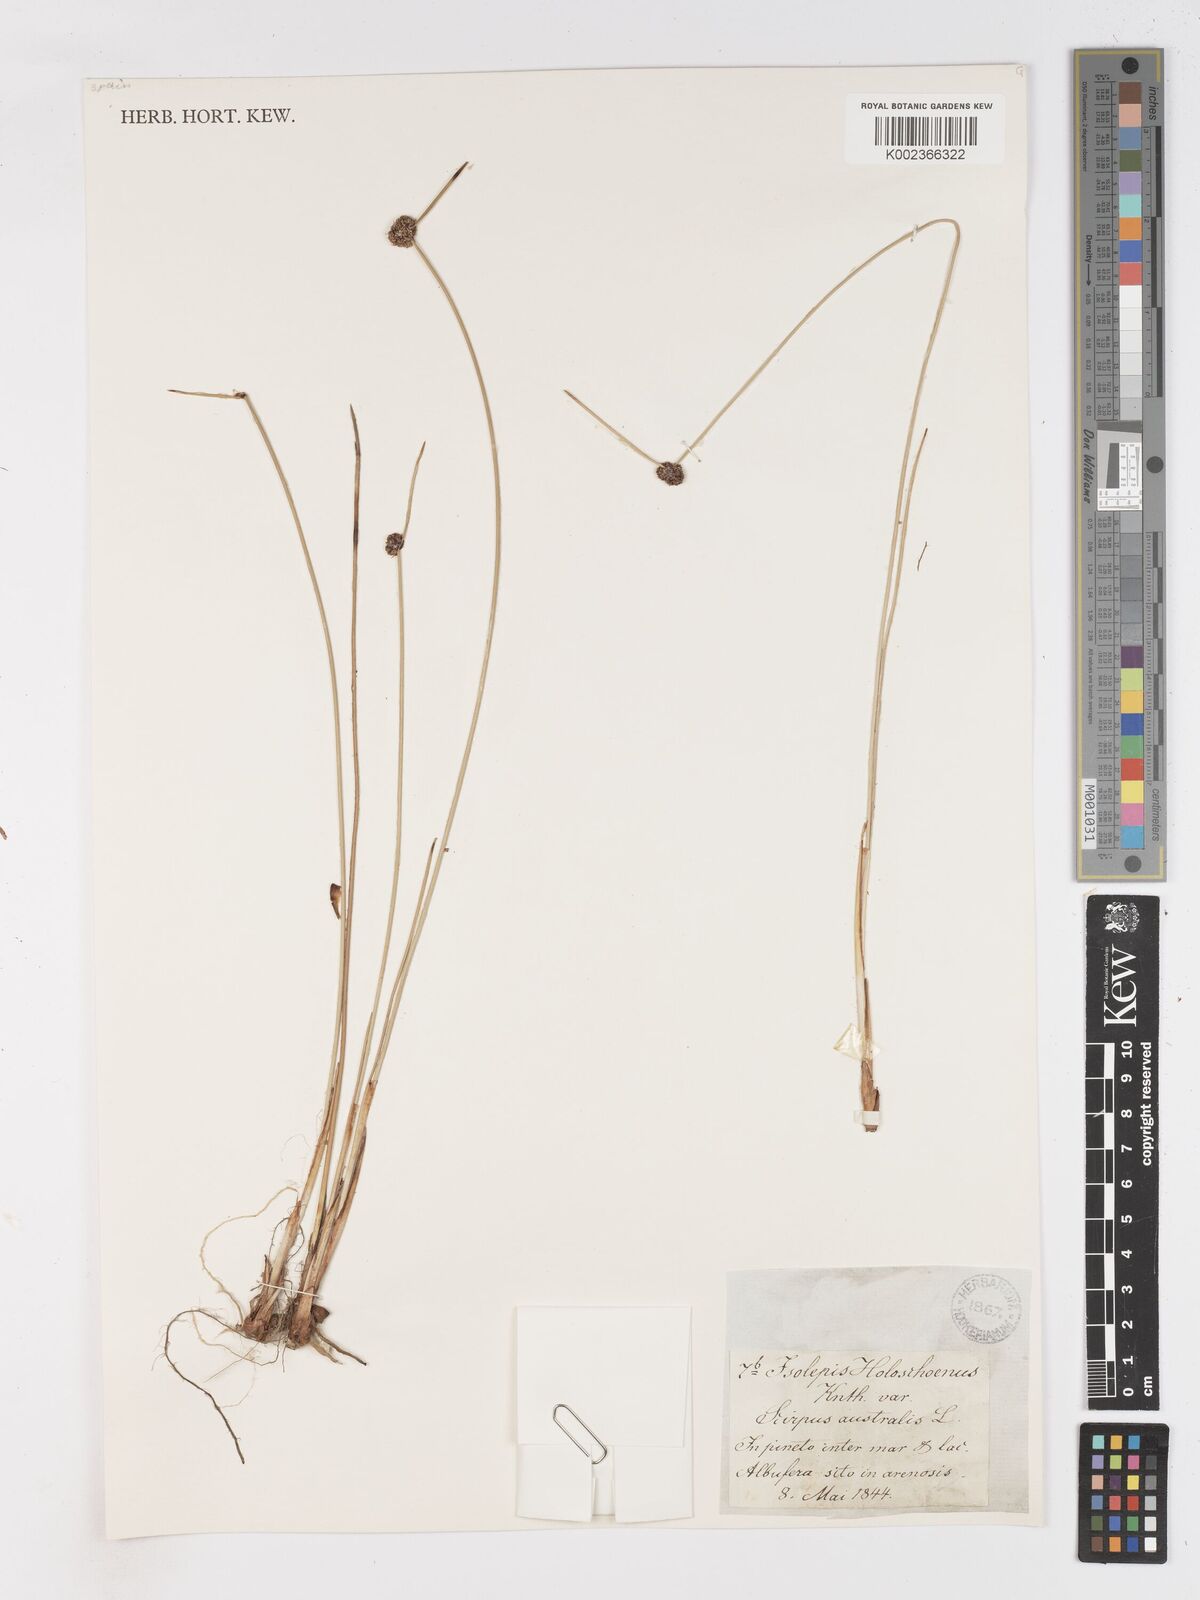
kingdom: Plantae
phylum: Tracheophyta
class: Liliopsida
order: Poales
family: Cyperaceae
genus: Scirpoides
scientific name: Scirpoides
